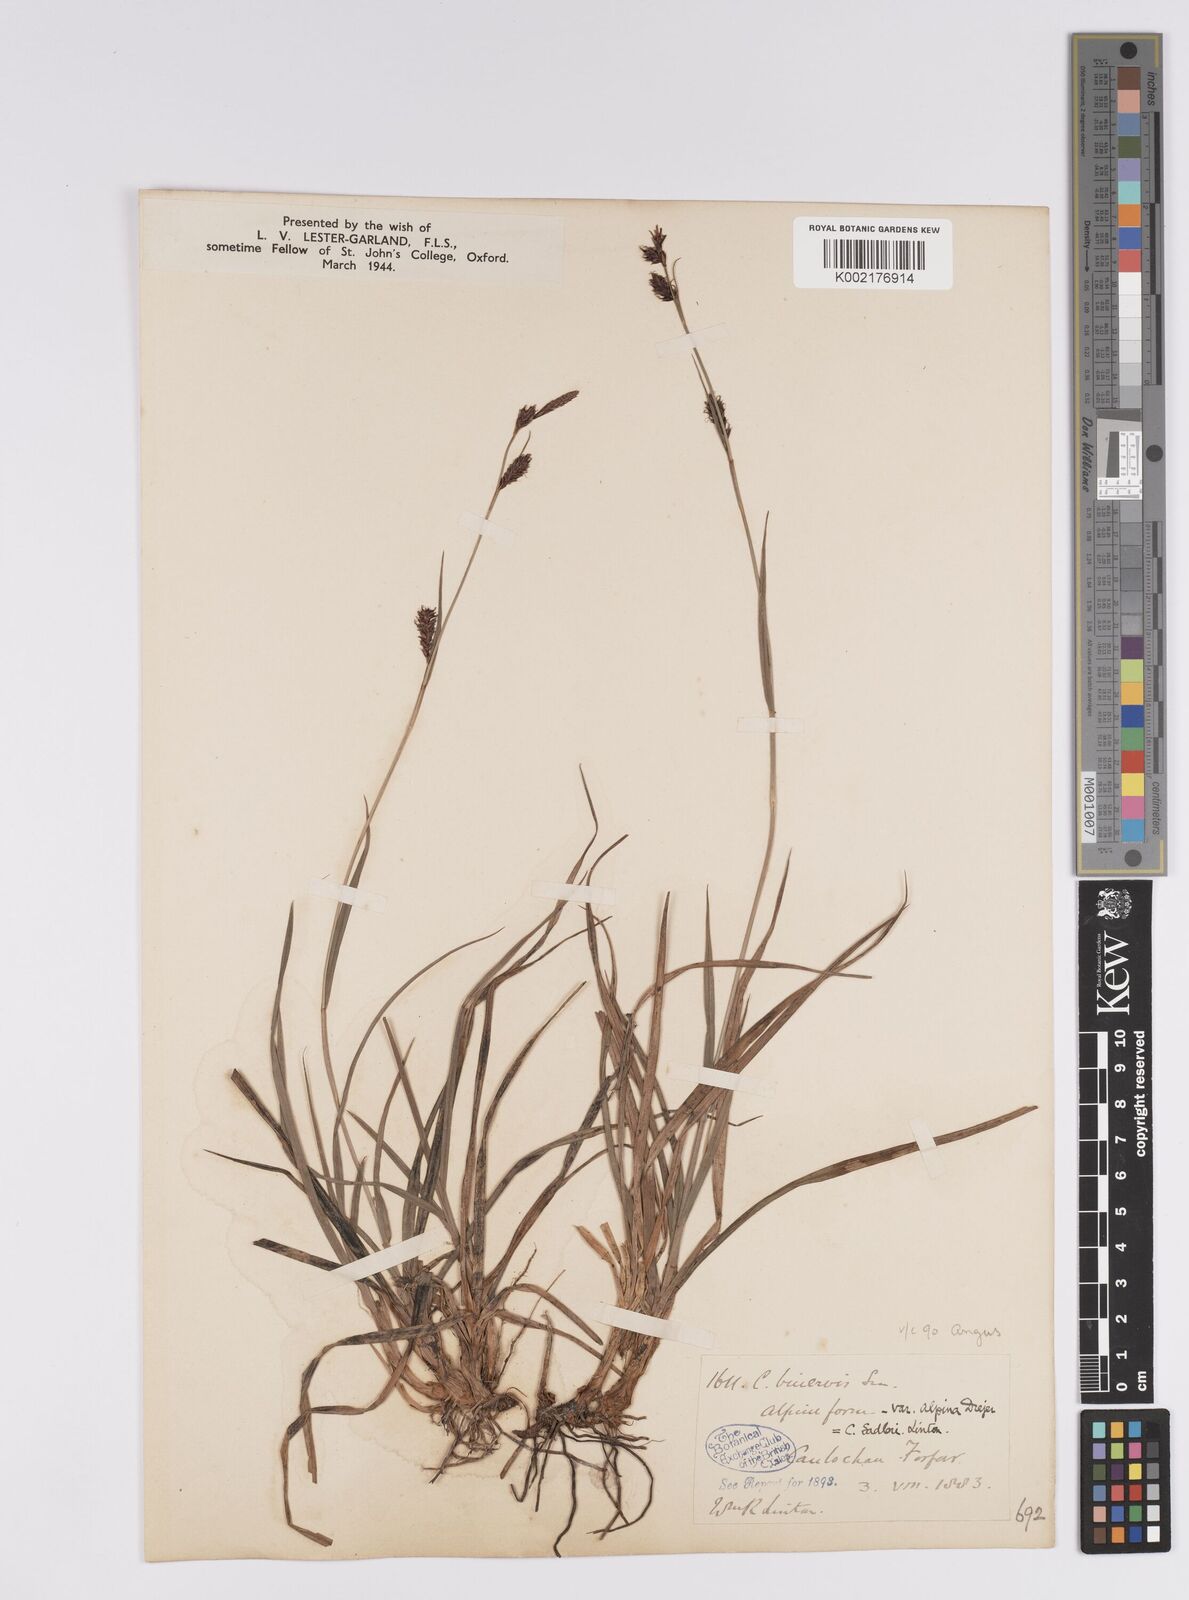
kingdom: Plantae
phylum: Tracheophyta
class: Liliopsida
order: Poales
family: Cyperaceae
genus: Carex
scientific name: Carex frigida
